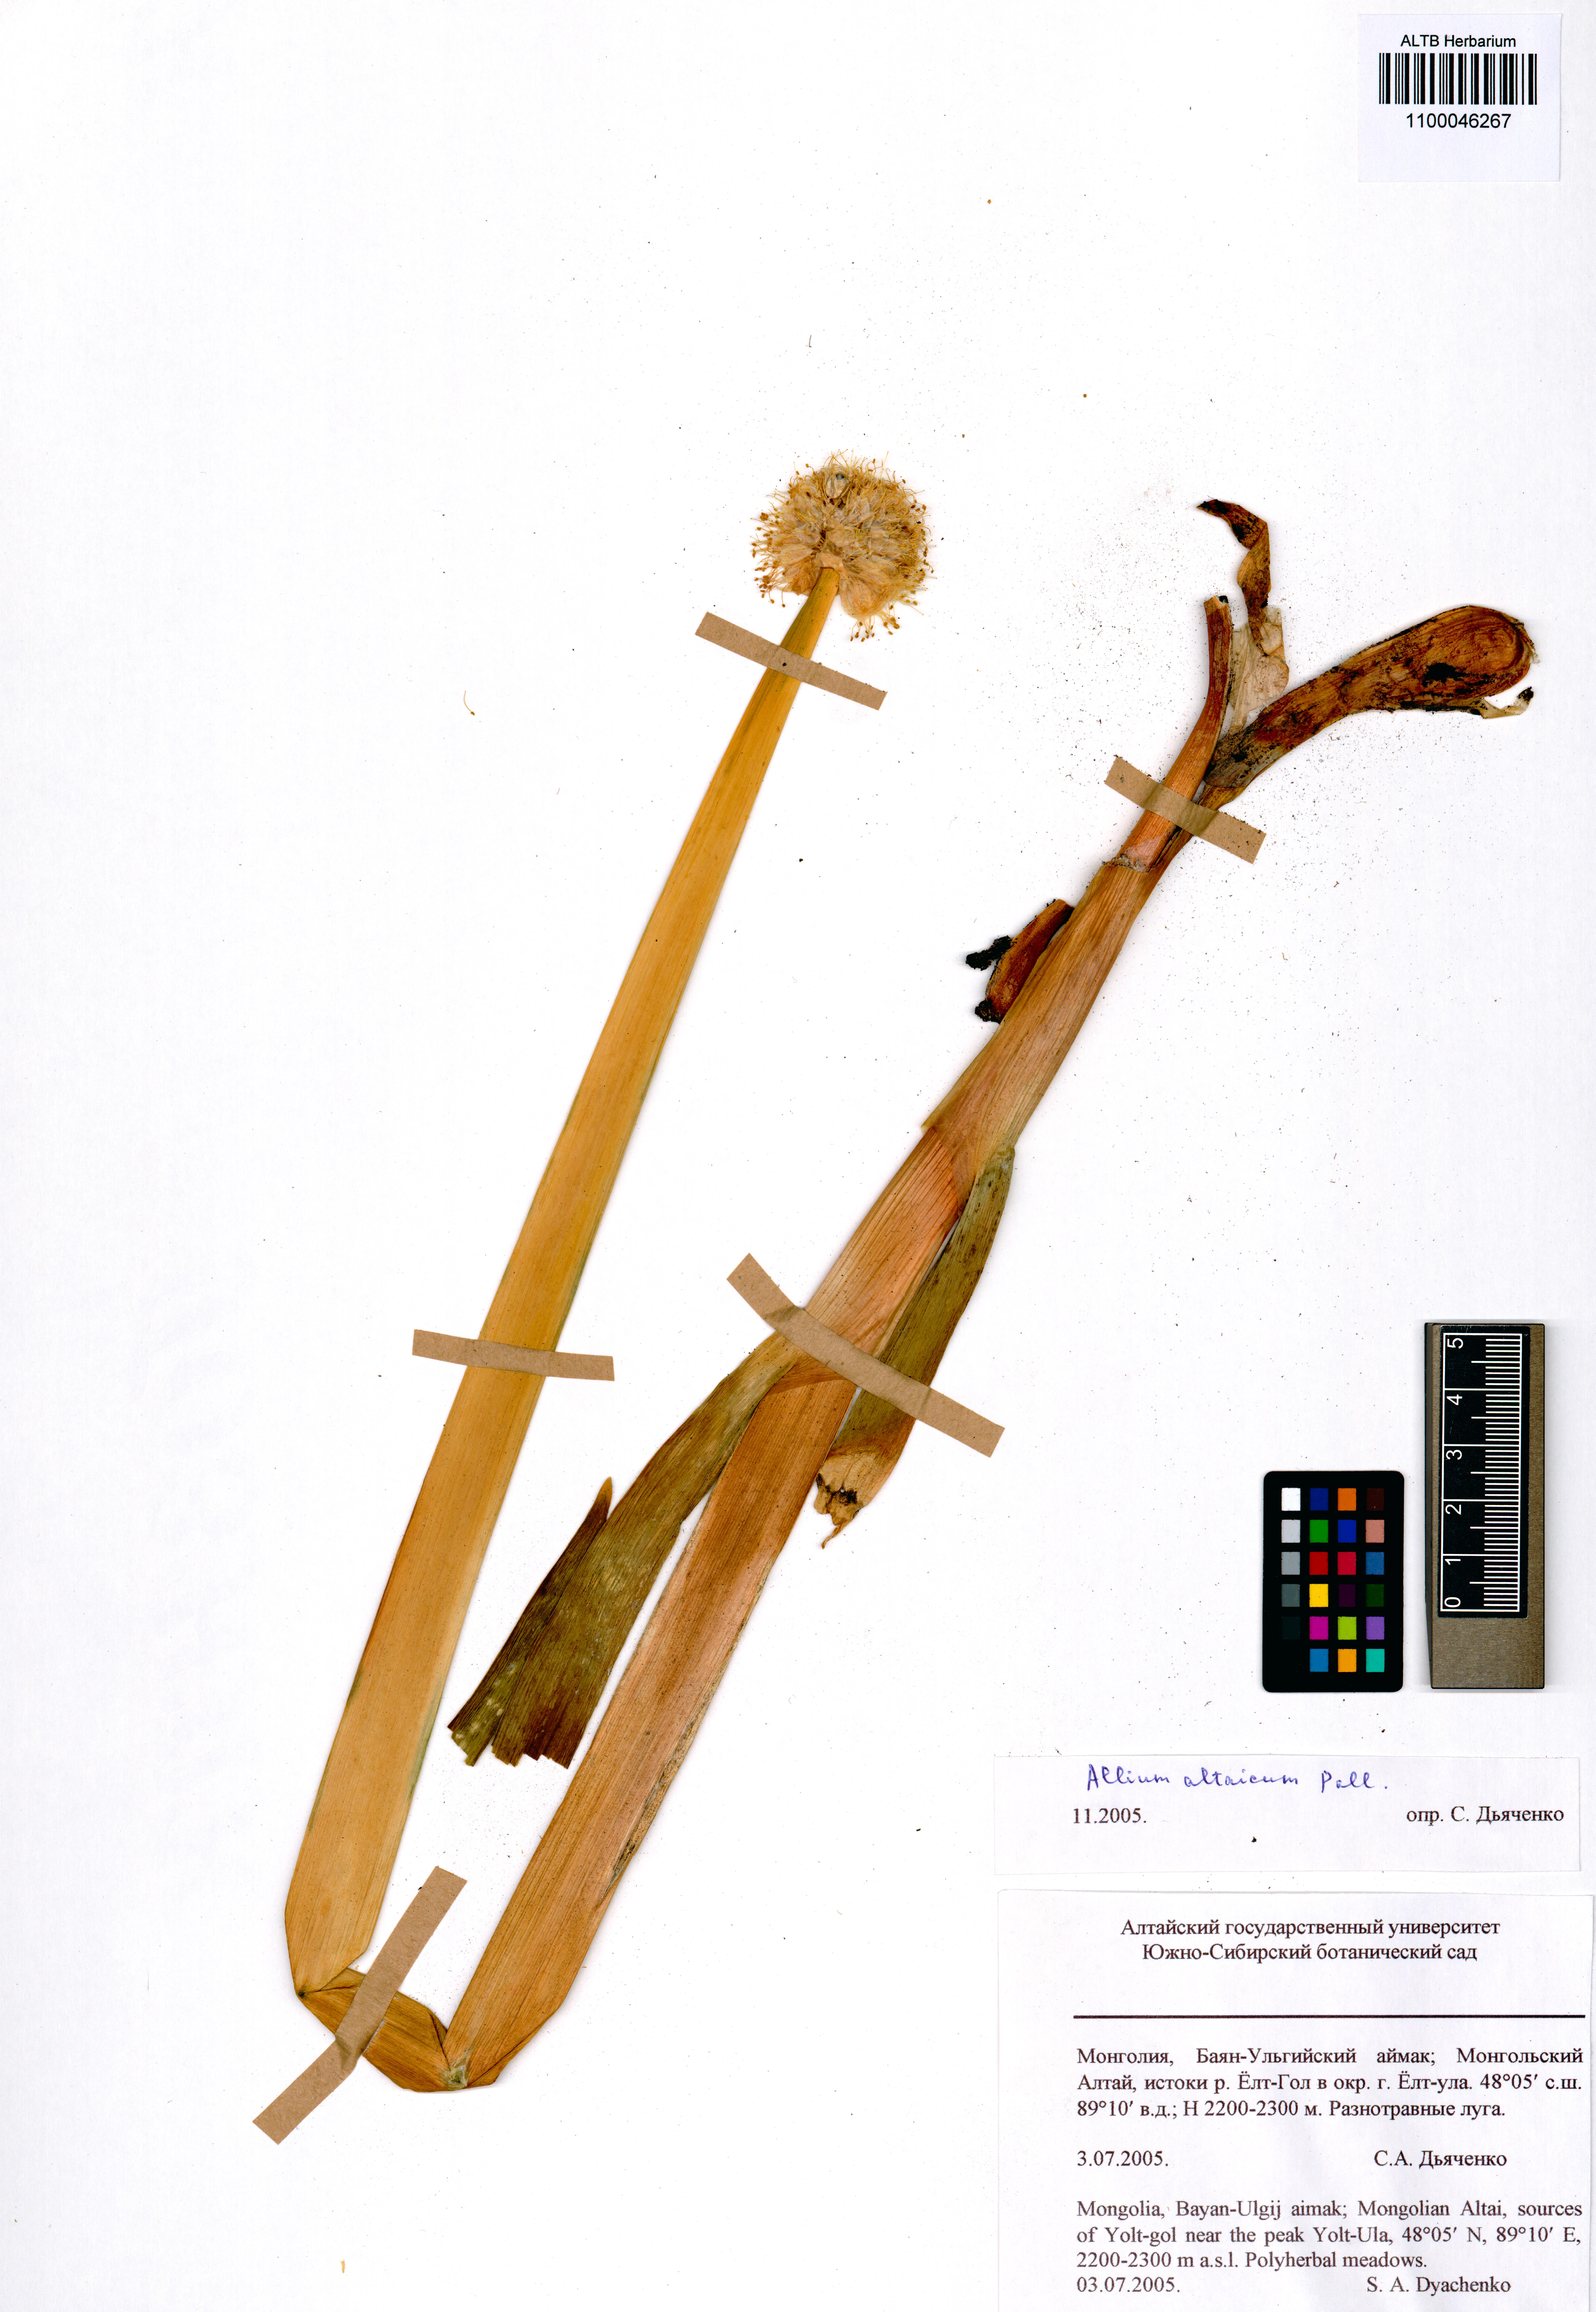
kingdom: Plantae
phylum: Tracheophyta
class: Liliopsida
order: Asparagales
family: Amaryllidaceae
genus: Allium
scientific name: Allium altaicum
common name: Altai onion
